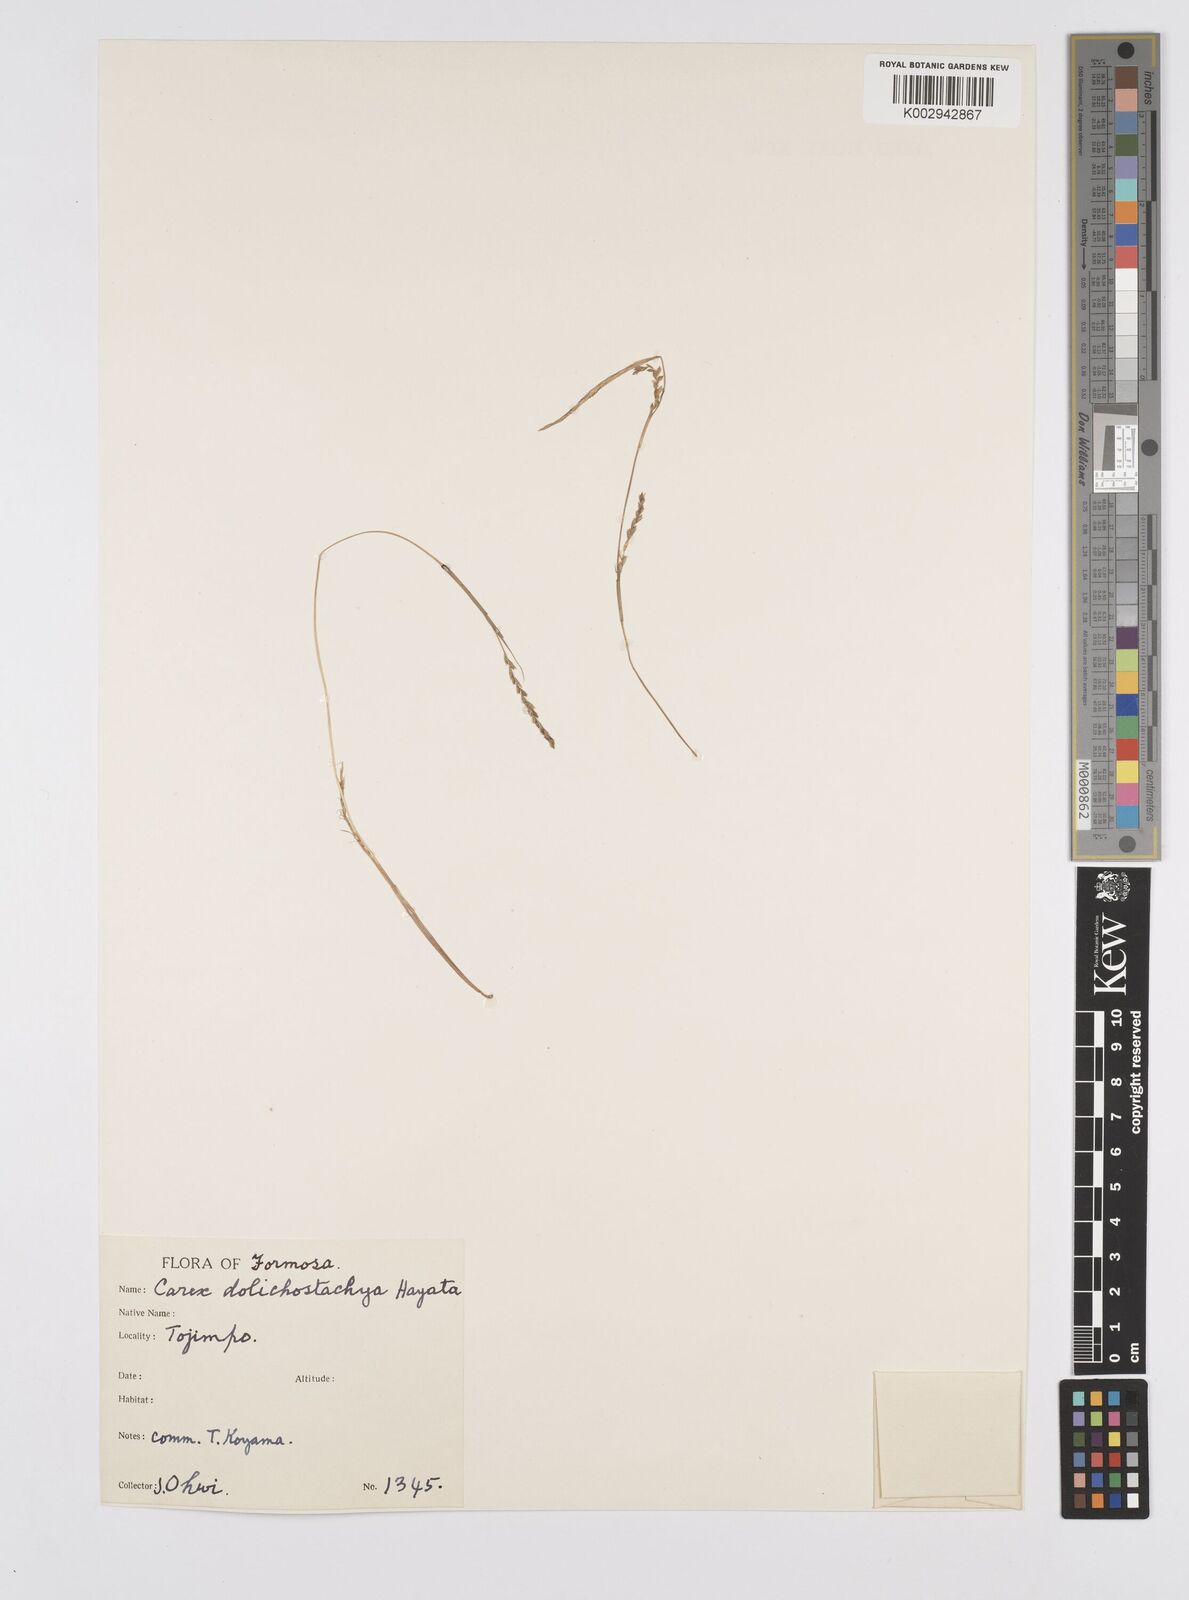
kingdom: Plantae
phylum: Tracheophyta
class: Liliopsida
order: Poales
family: Cyperaceae
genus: Carex
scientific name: Carex dolichostachya
